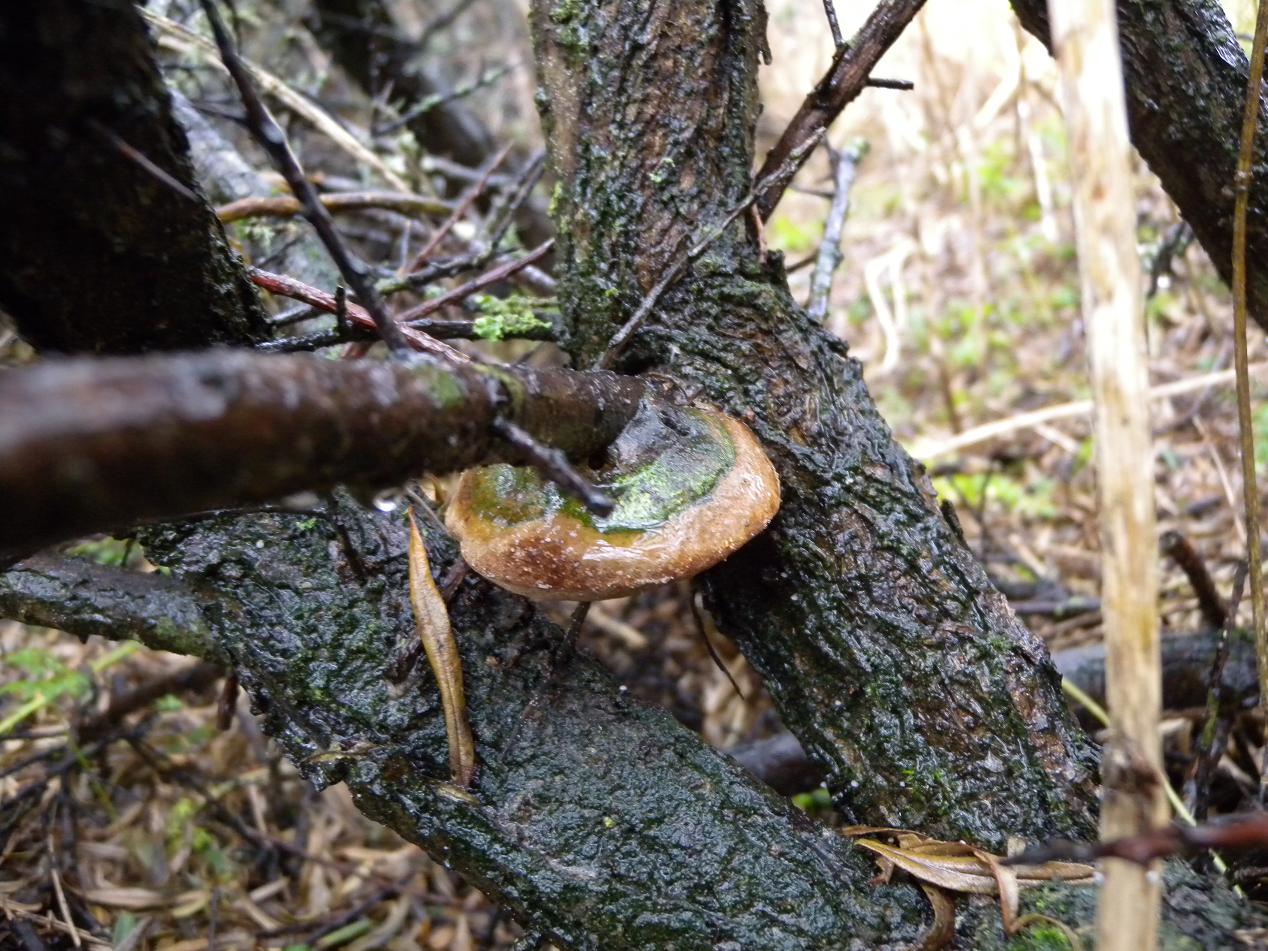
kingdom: Fungi
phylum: Basidiomycota
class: Agaricomycetes
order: Hymenochaetales
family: Hymenochaetaceae
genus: Fomitiporia
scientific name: Fomitiporia hippophaeicola
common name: havtorn-ildporesvamp
